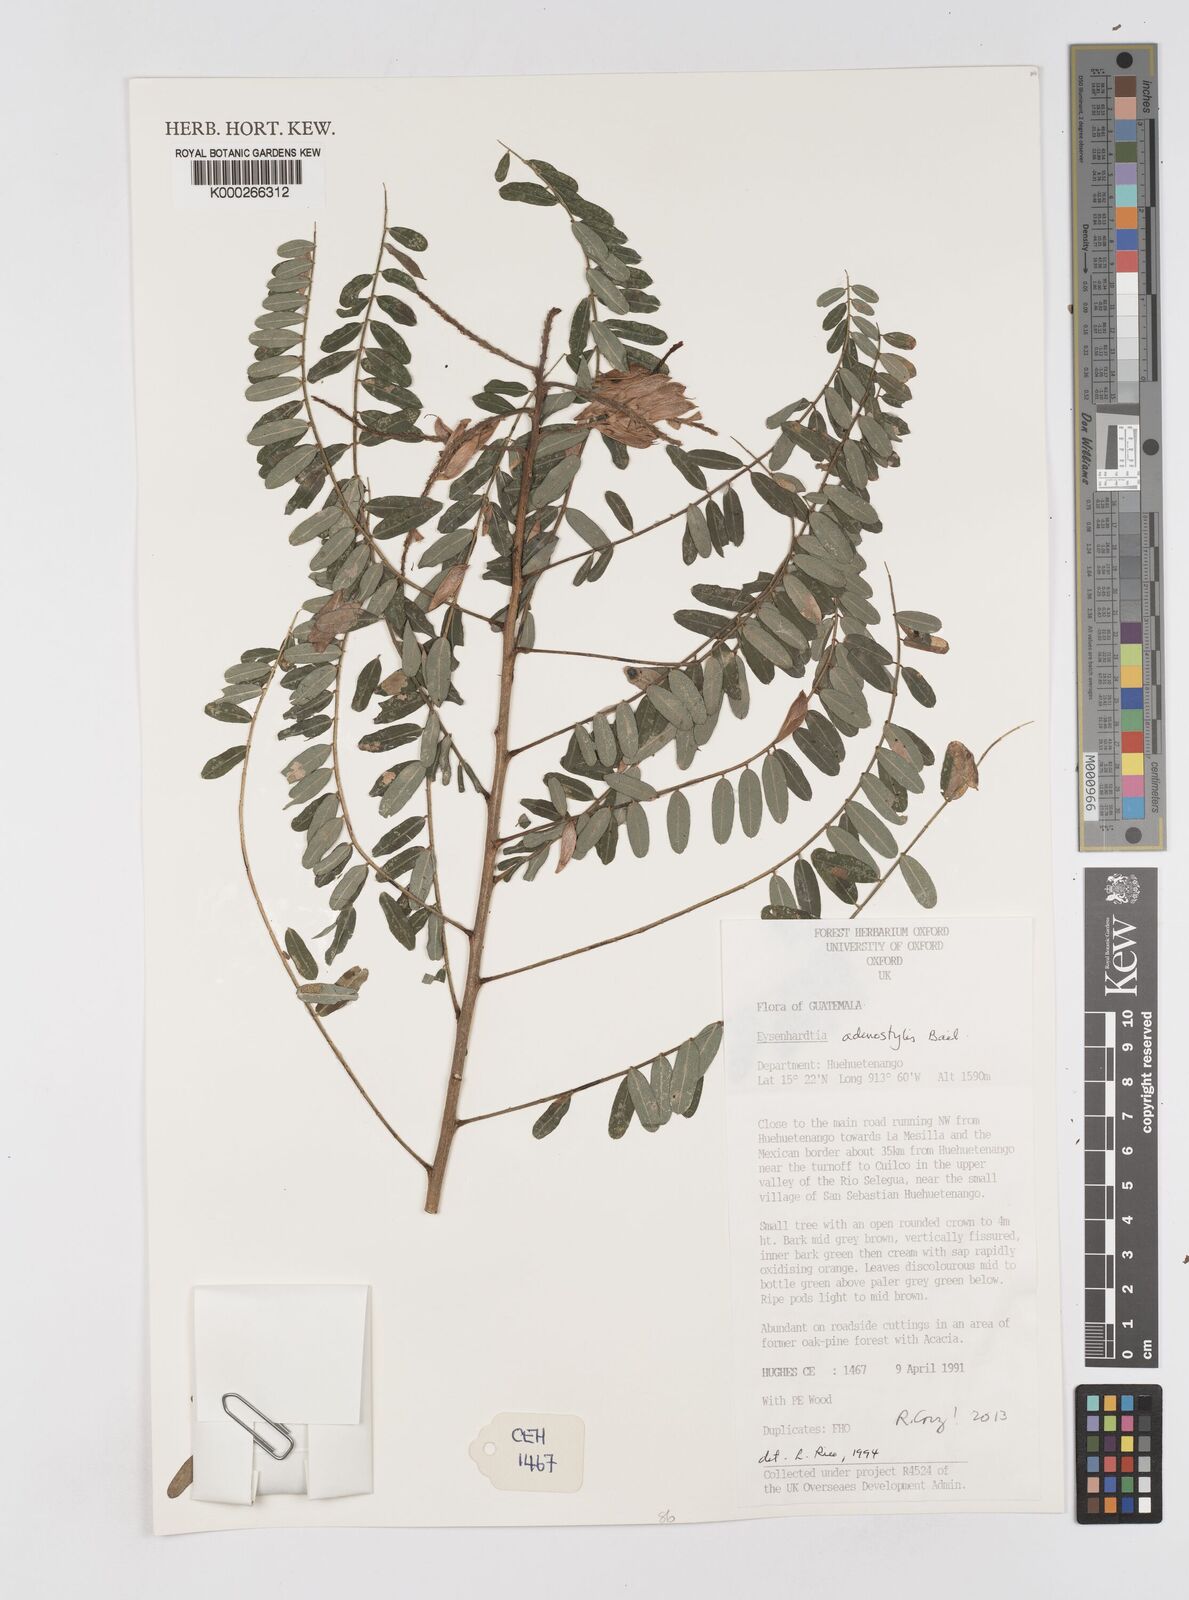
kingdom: Plantae
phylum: Tracheophyta
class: Magnoliopsida
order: Fabales
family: Fabaceae
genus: Eysenhardtia
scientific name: Eysenhardtia adenostylis
